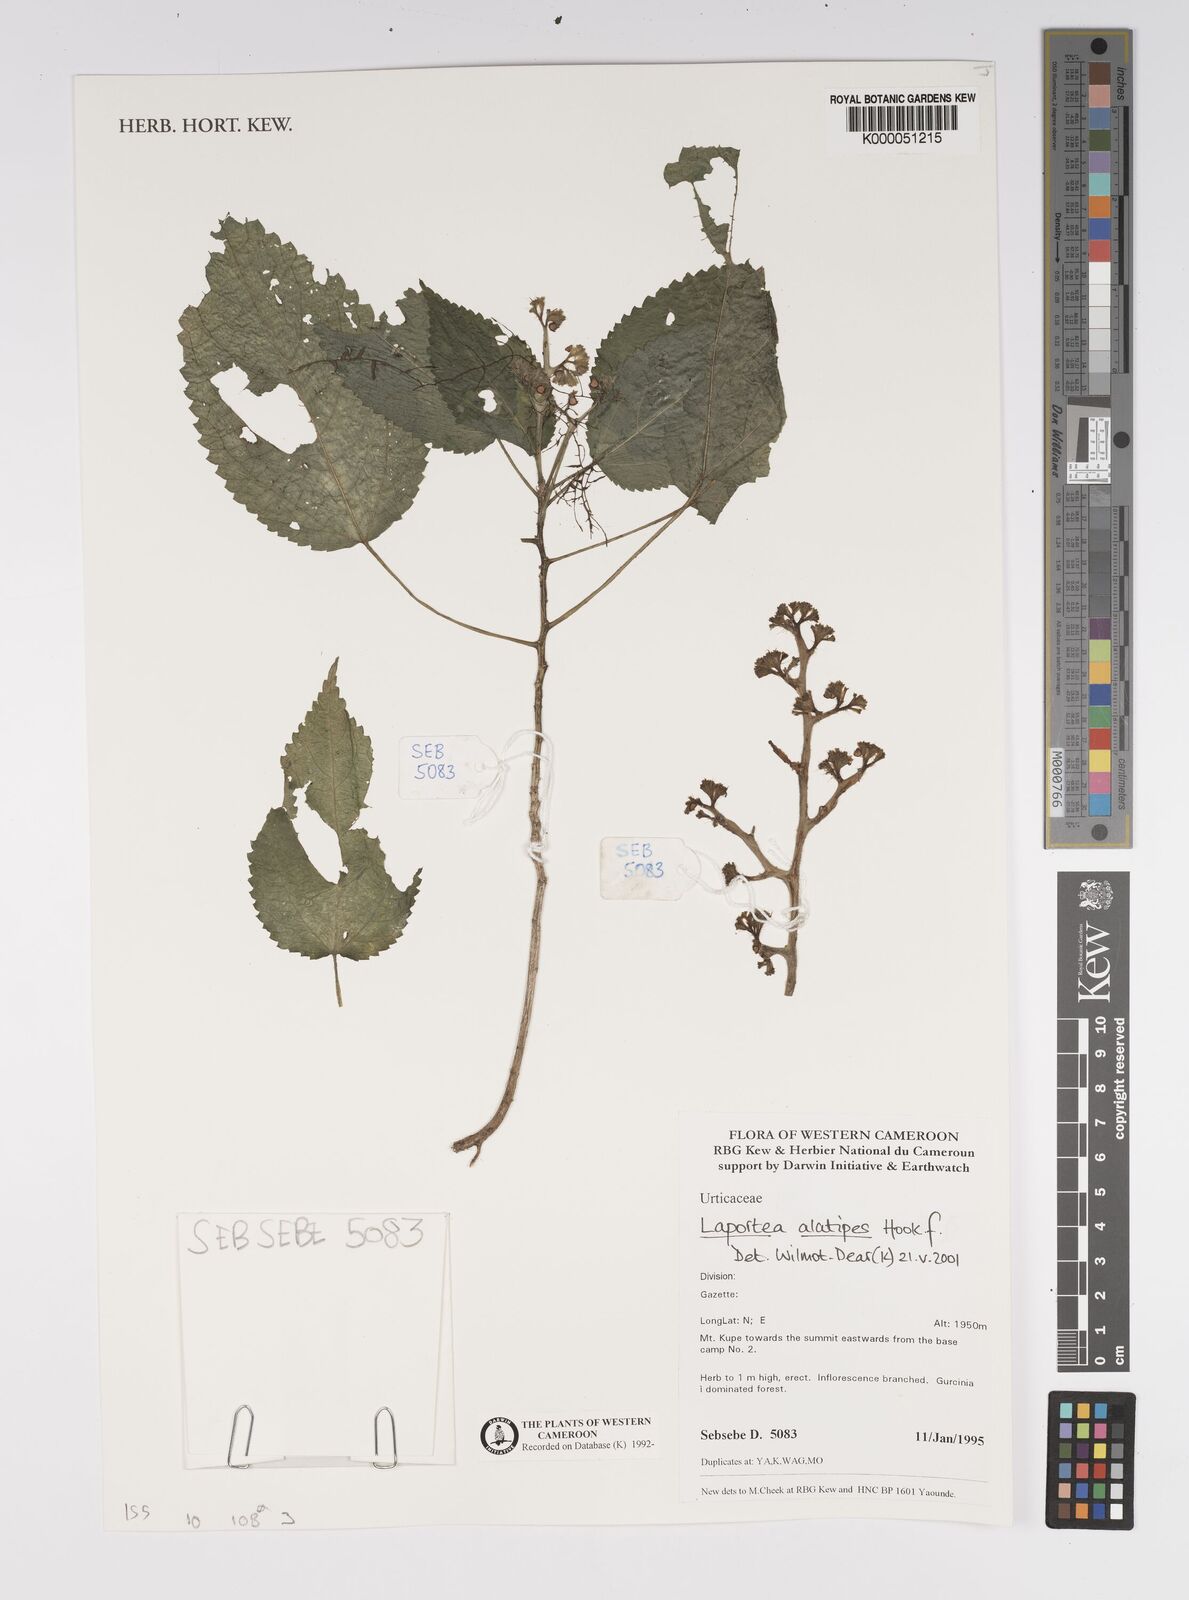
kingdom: Plantae
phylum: Tracheophyta
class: Magnoliopsida
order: Rosales
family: Urticaceae
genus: Laportea
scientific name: Laportea alatipes
